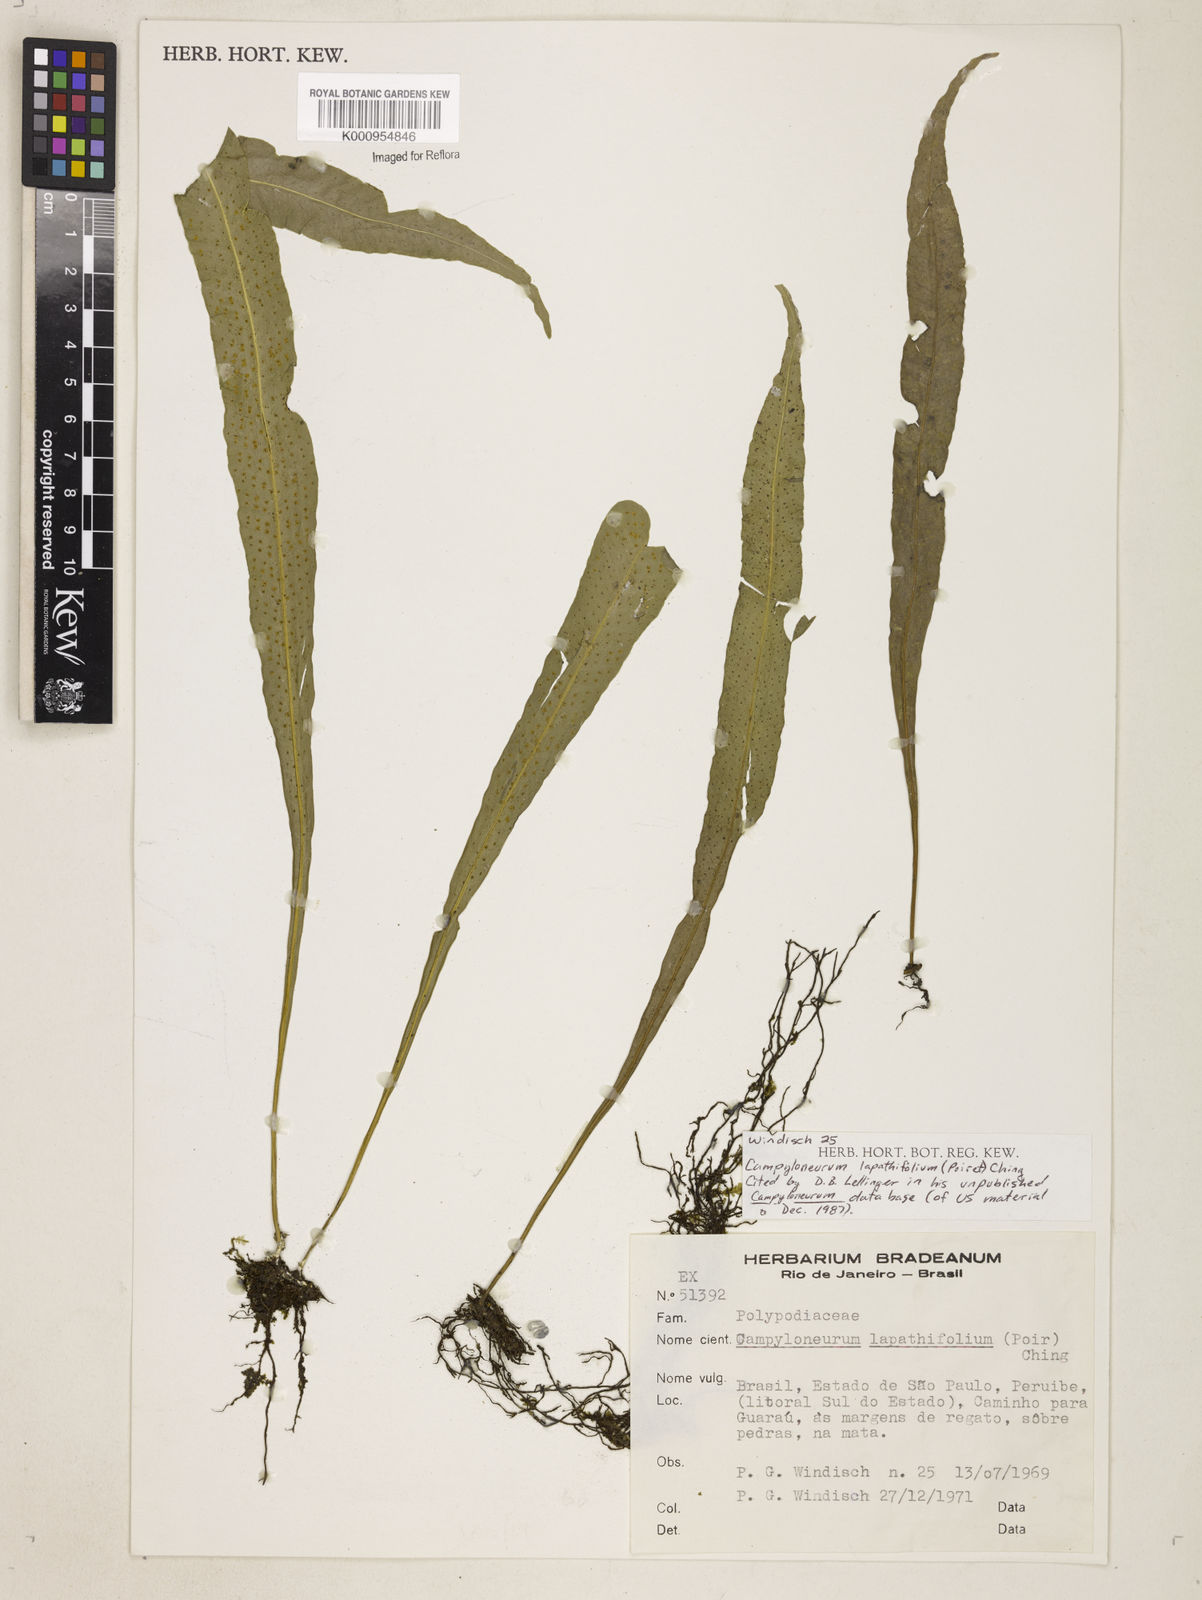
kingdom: Plantae
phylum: Tracheophyta
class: Polypodiopsida
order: Polypodiales
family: Polypodiaceae
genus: Campyloneurum
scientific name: Campyloneurum repens
